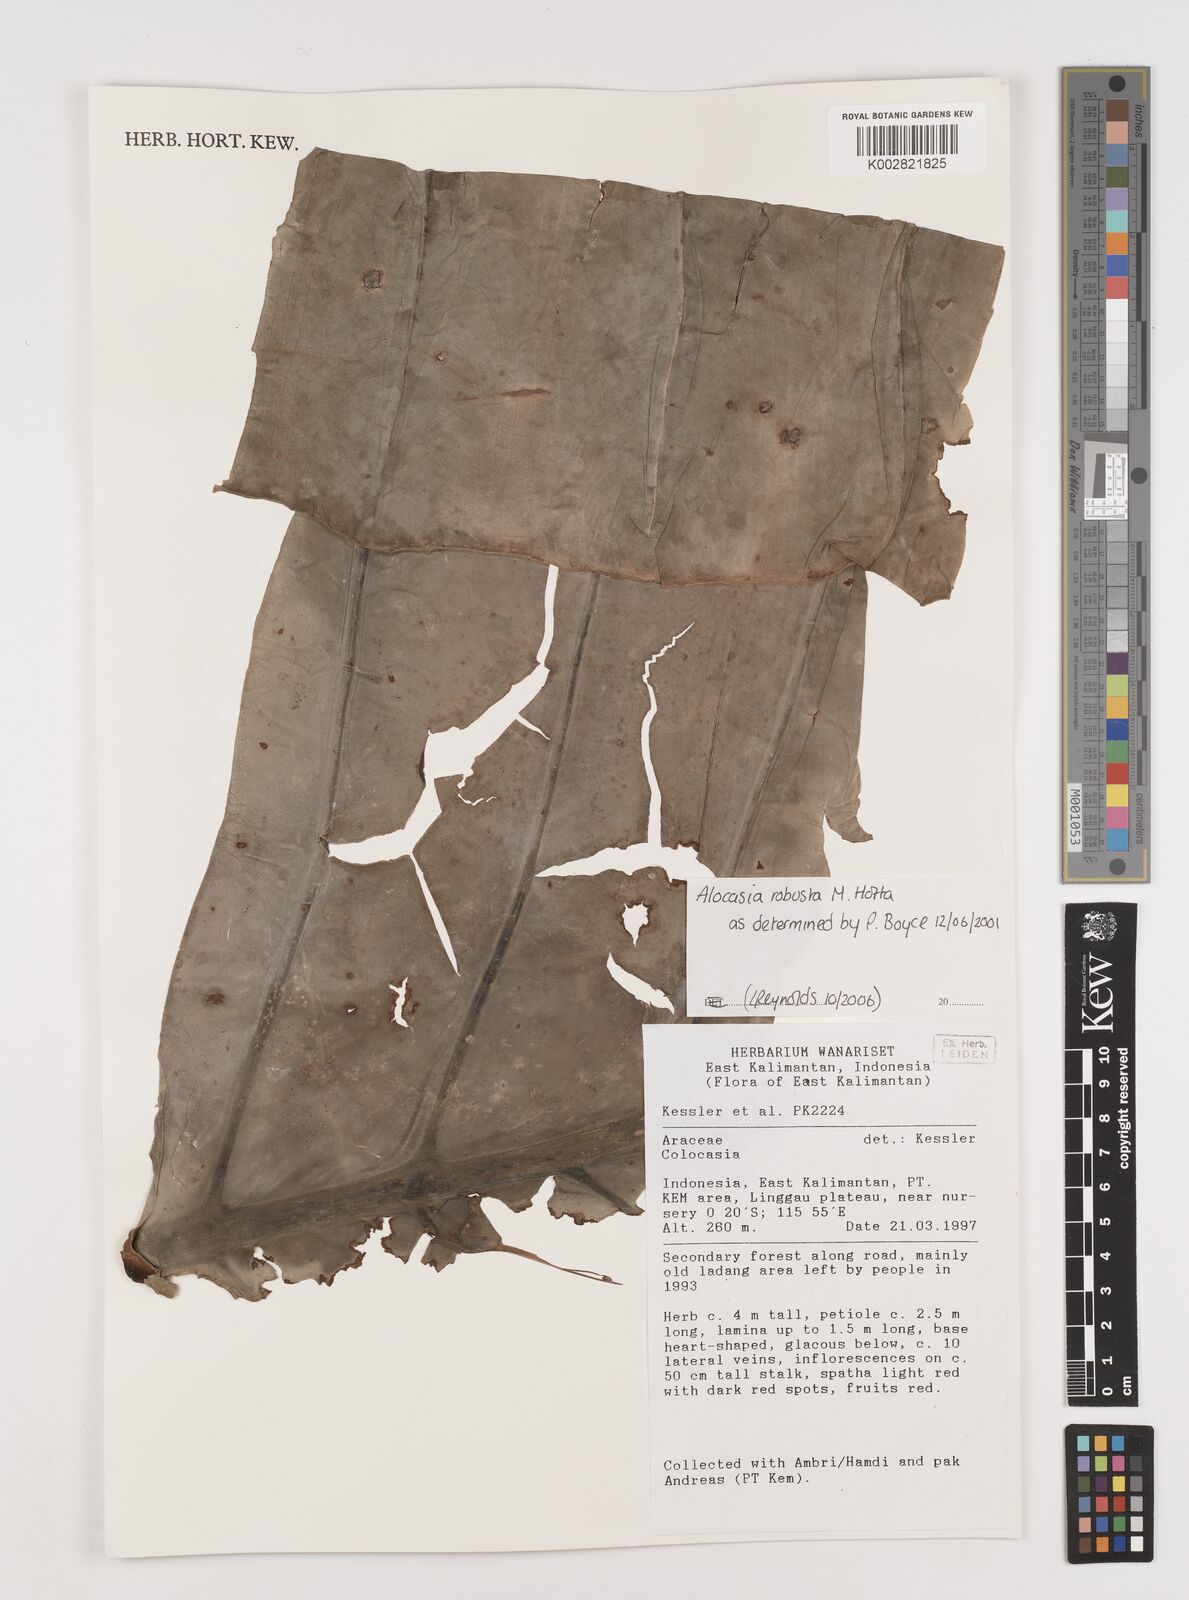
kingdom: Plantae
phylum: Tracheophyta
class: Liliopsida
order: Alismatales
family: Araceae
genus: Alocasia
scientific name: Alocasia robusta
